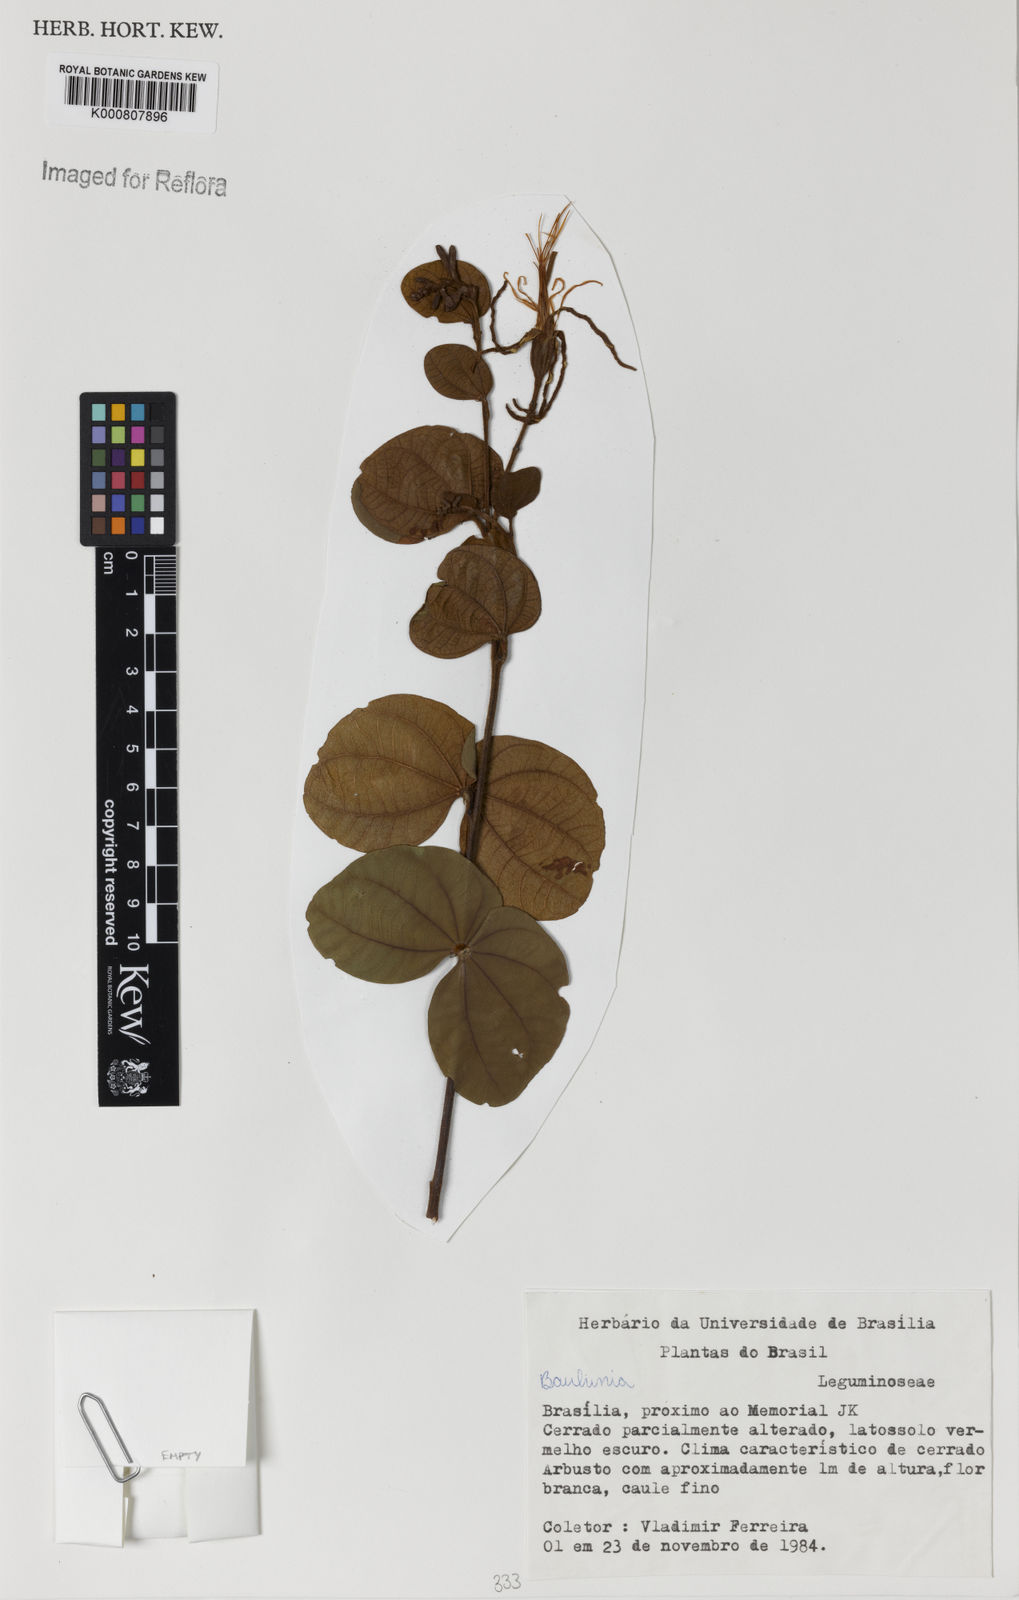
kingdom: Plantae
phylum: Tracheophyta
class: Magnoliopsida
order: Fabales
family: Fabaceae
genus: Bauhinia
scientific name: Bauhinia
